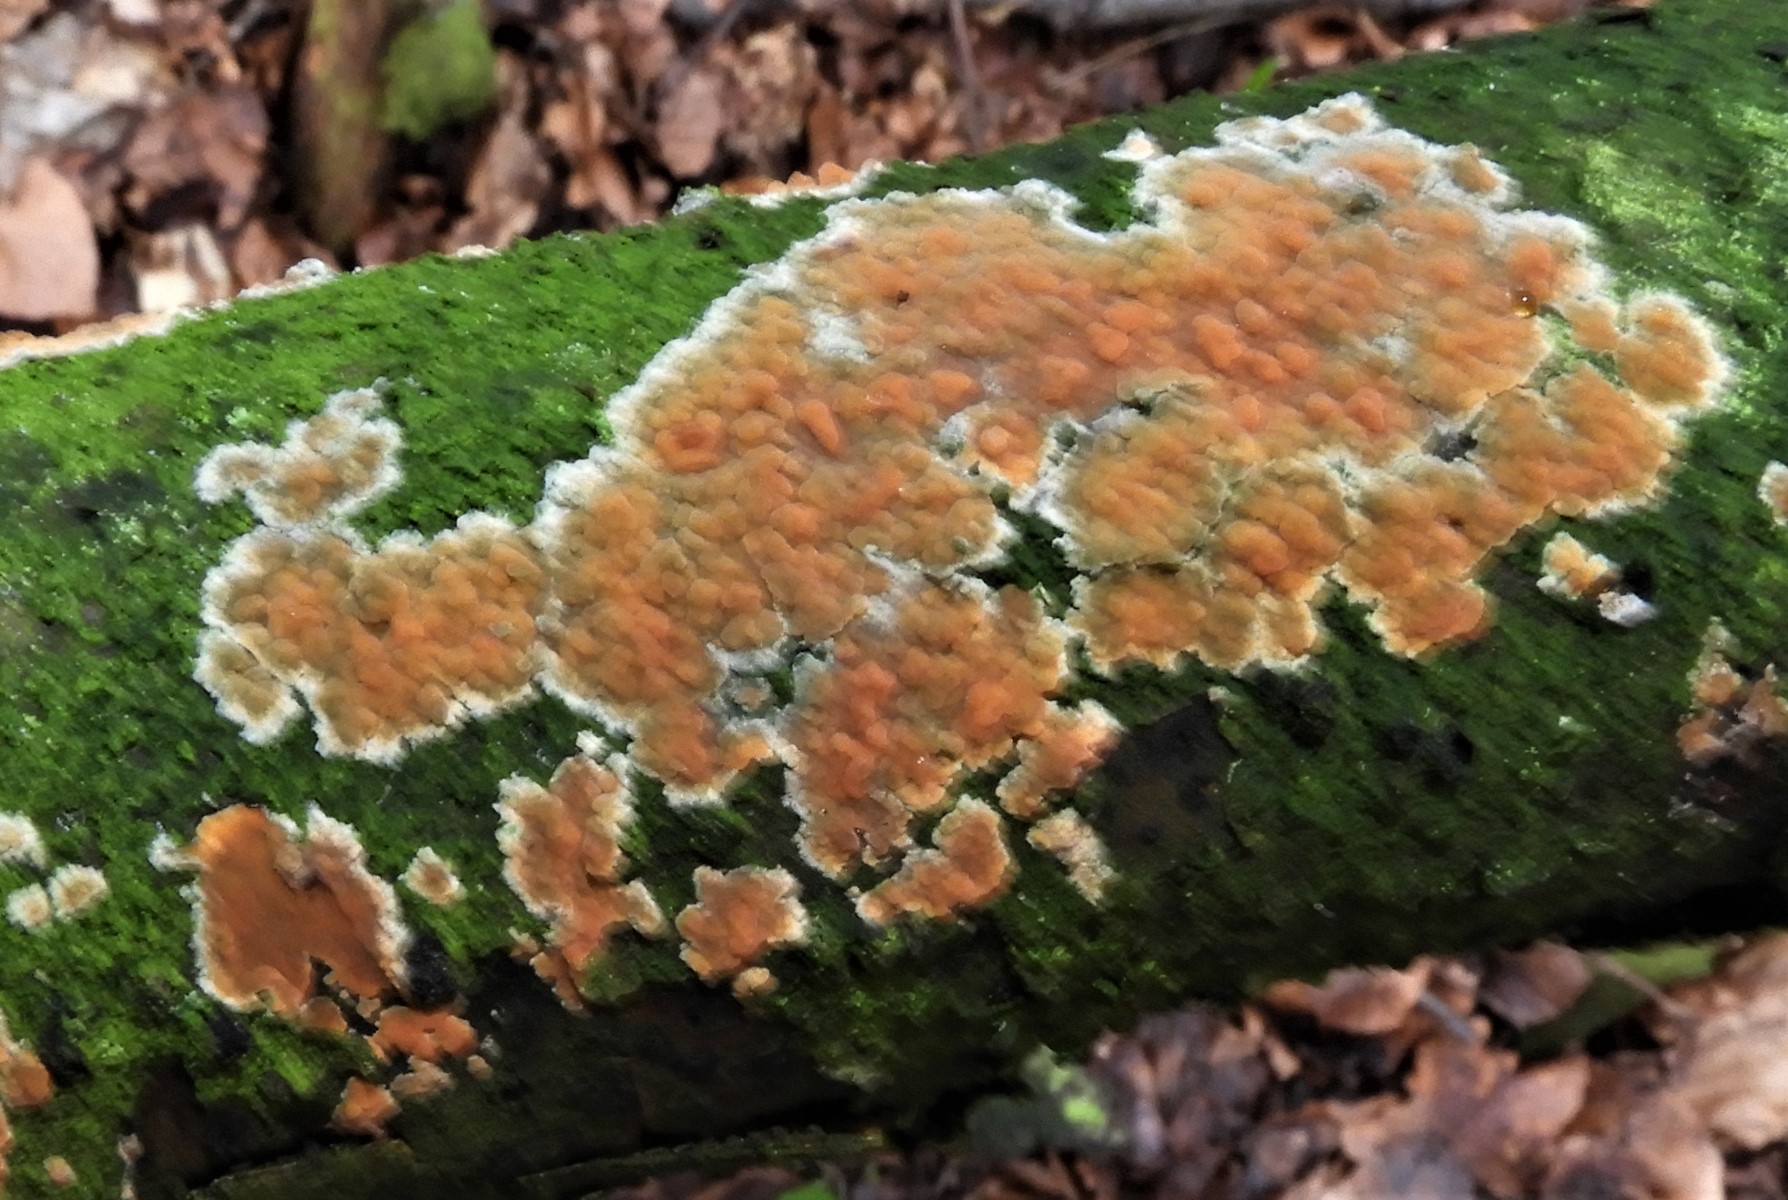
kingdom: Fungi
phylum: Basidiomycota
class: Agaricomycetes
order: Russulales
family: Peniophoraceae
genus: Peniophora
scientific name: Peniophora incarnata
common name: laksefarvet voksskind
